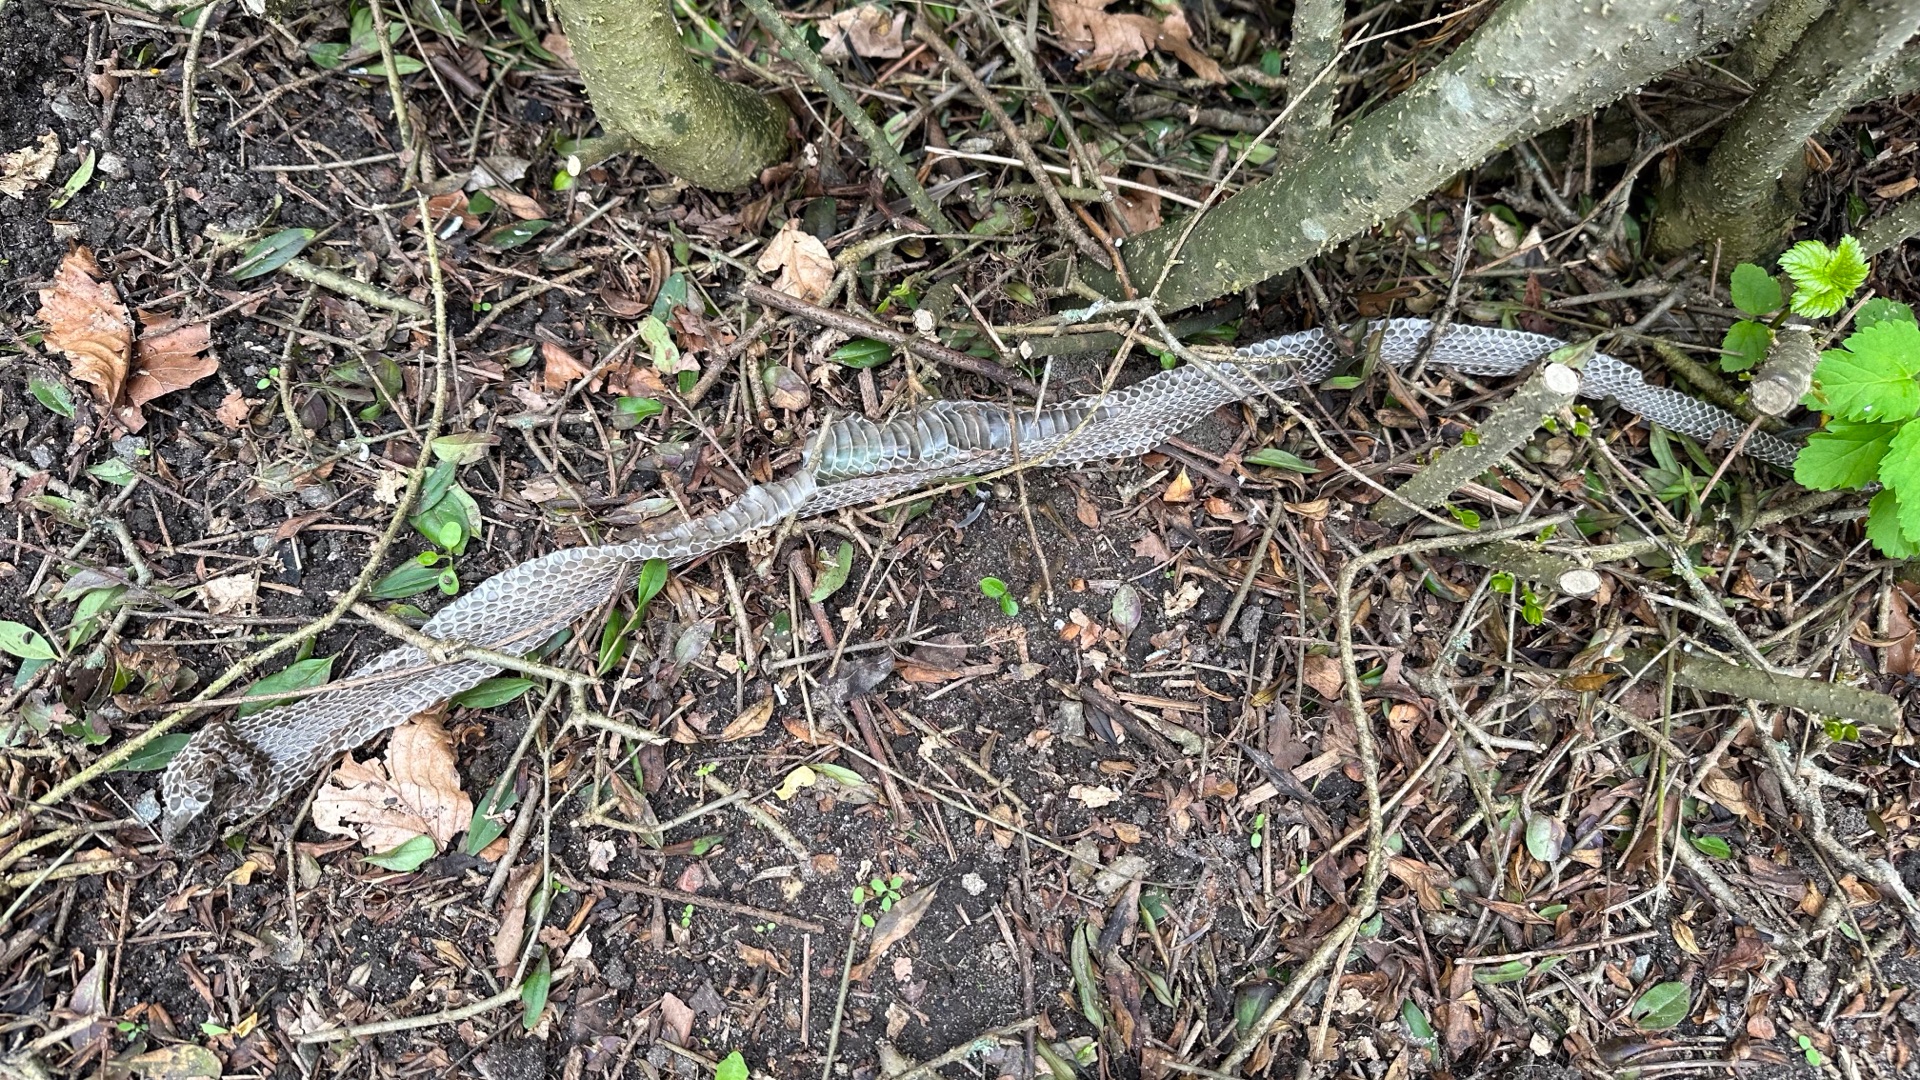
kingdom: Animalia
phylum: Chordata
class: Squamata
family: Colubridae
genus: Natrix
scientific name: Natrix natrix
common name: Snog
